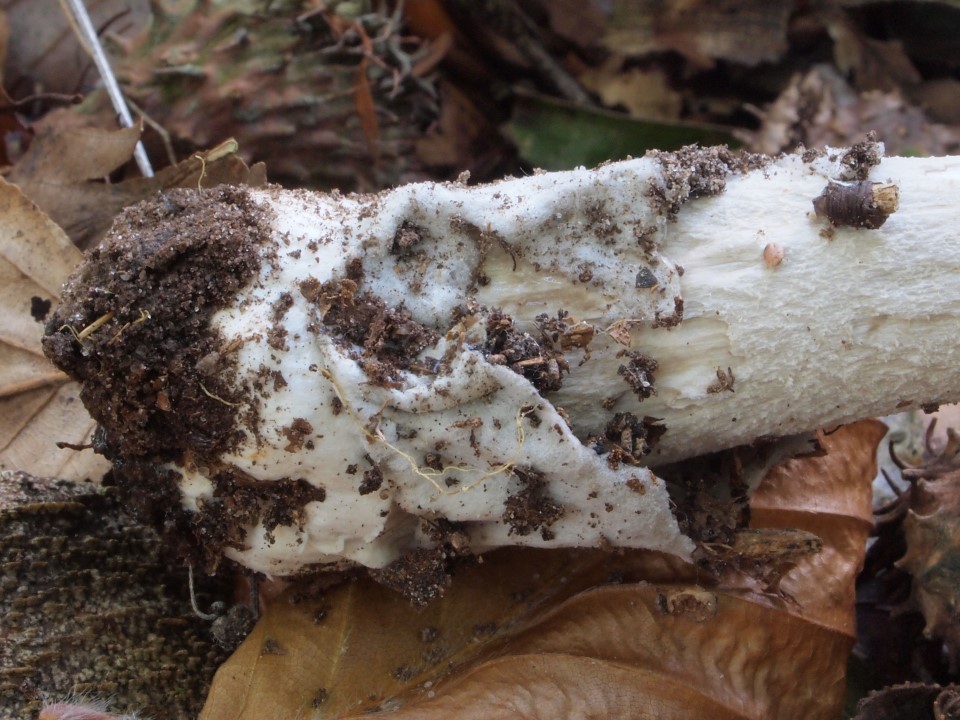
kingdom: Fungi
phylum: Basidiomycota
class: Agaricomycetes
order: Agaricales
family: Amanitaceae
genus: Amanita
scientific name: Amanita vaginata
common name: grå kam-fluesvamp
